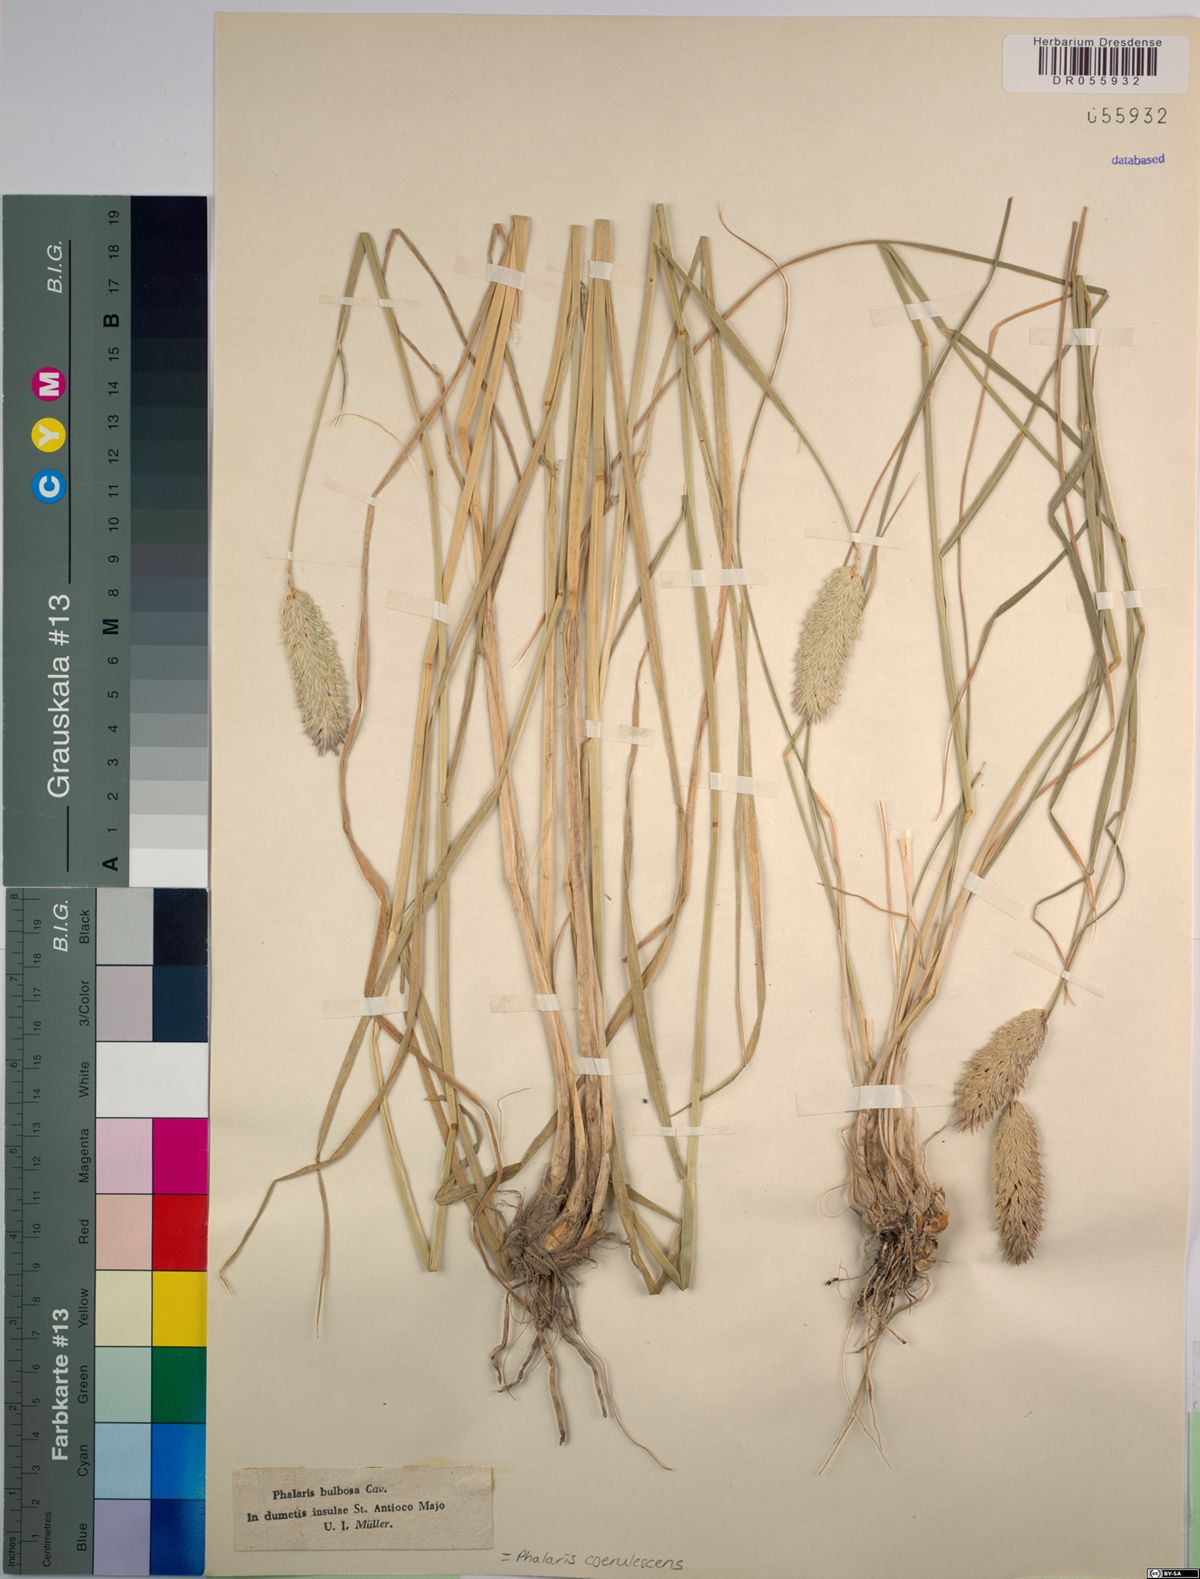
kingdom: Plantae
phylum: Tracheophyta
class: Liliopsida
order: Poales
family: Poaceae
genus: Phalaris
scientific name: Phalaris coerulescens
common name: Sunolgrass
